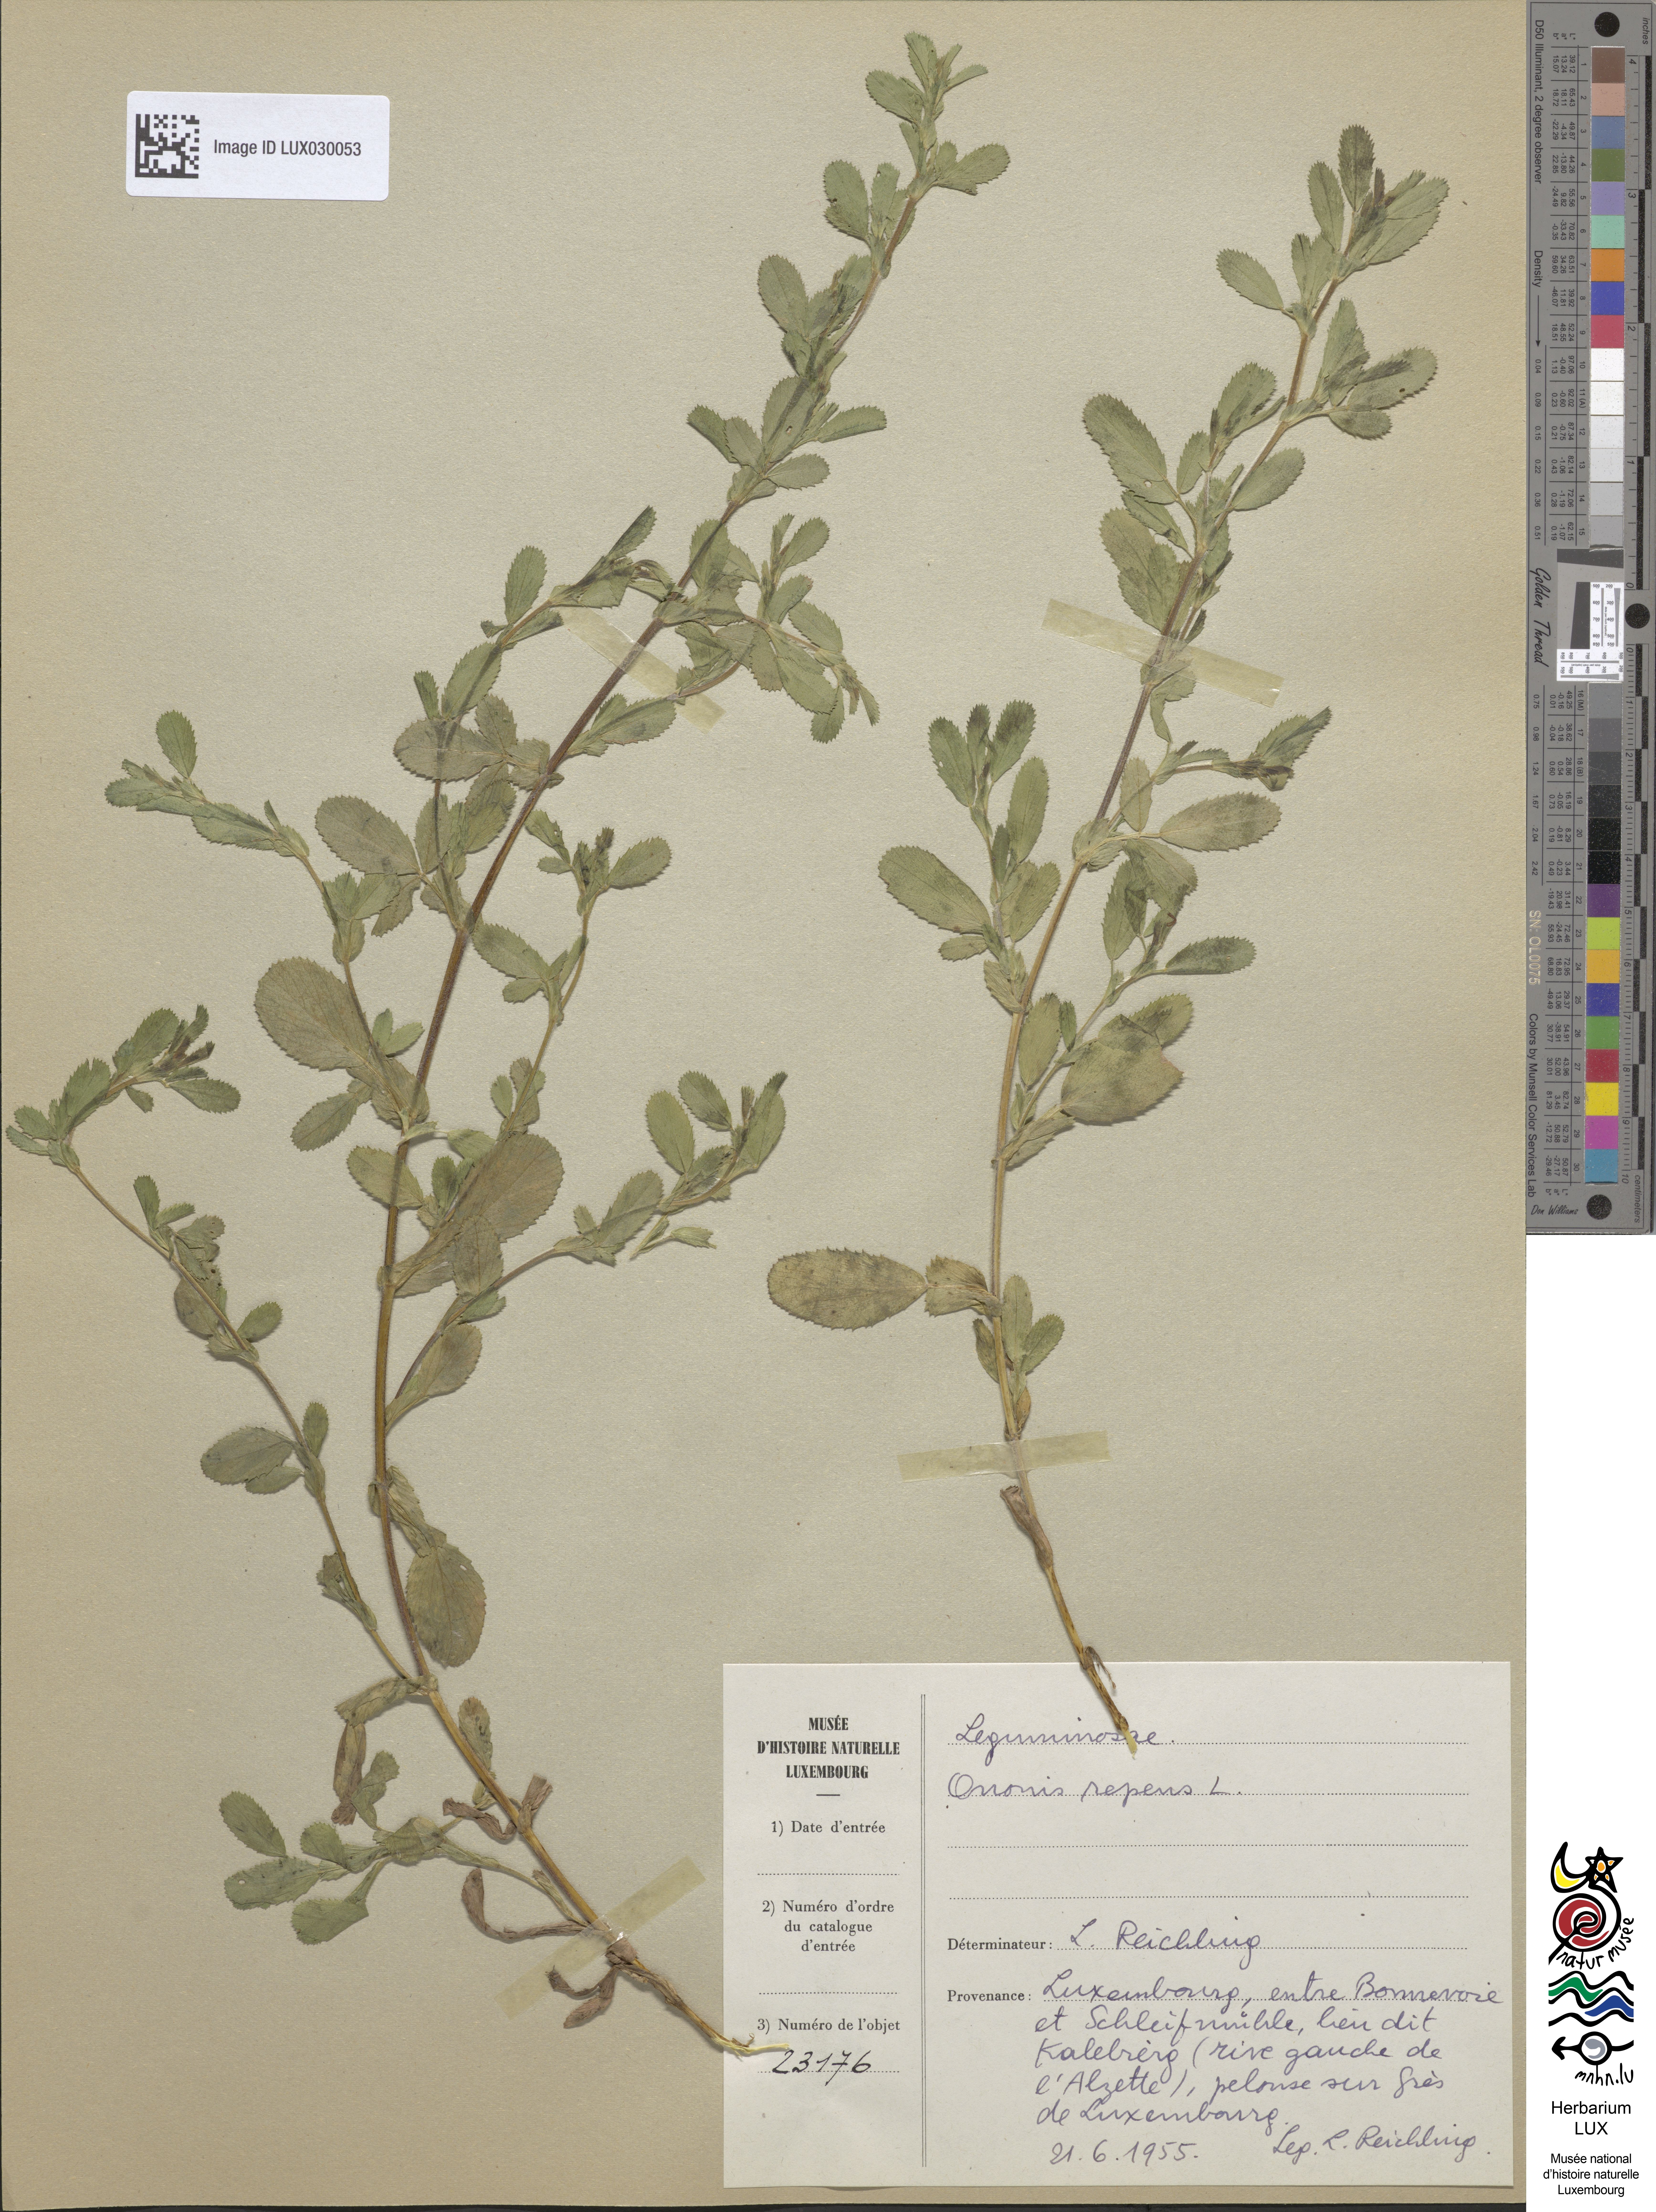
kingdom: Plantae
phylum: Tracheophyta
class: Magnoliopsida
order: Fabales
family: Fabaceae
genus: Ononis
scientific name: Ononis spinosa
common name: Spiny restharrow
